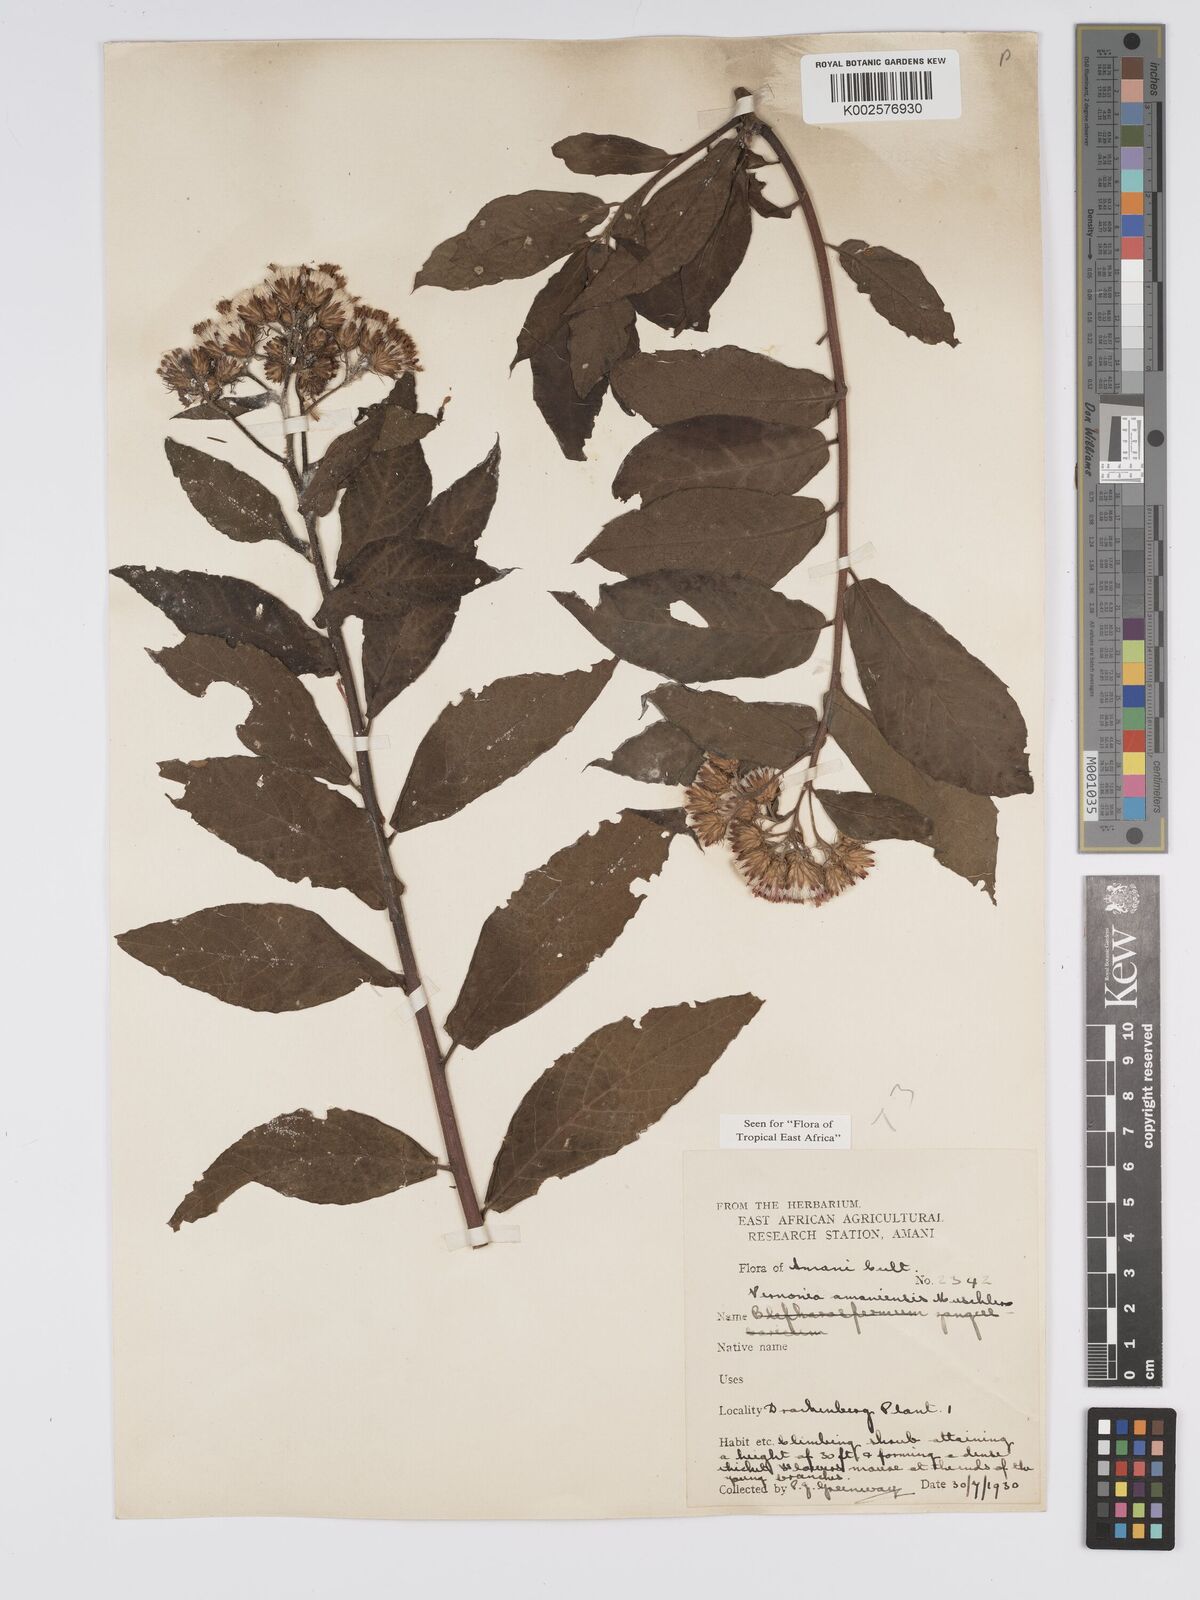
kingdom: Plantae
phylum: Tracheophyta
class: Magnoliopsida
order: Asterales
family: Asteraceae
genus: Jeffreycia
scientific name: Jeffreycia amaniensis
